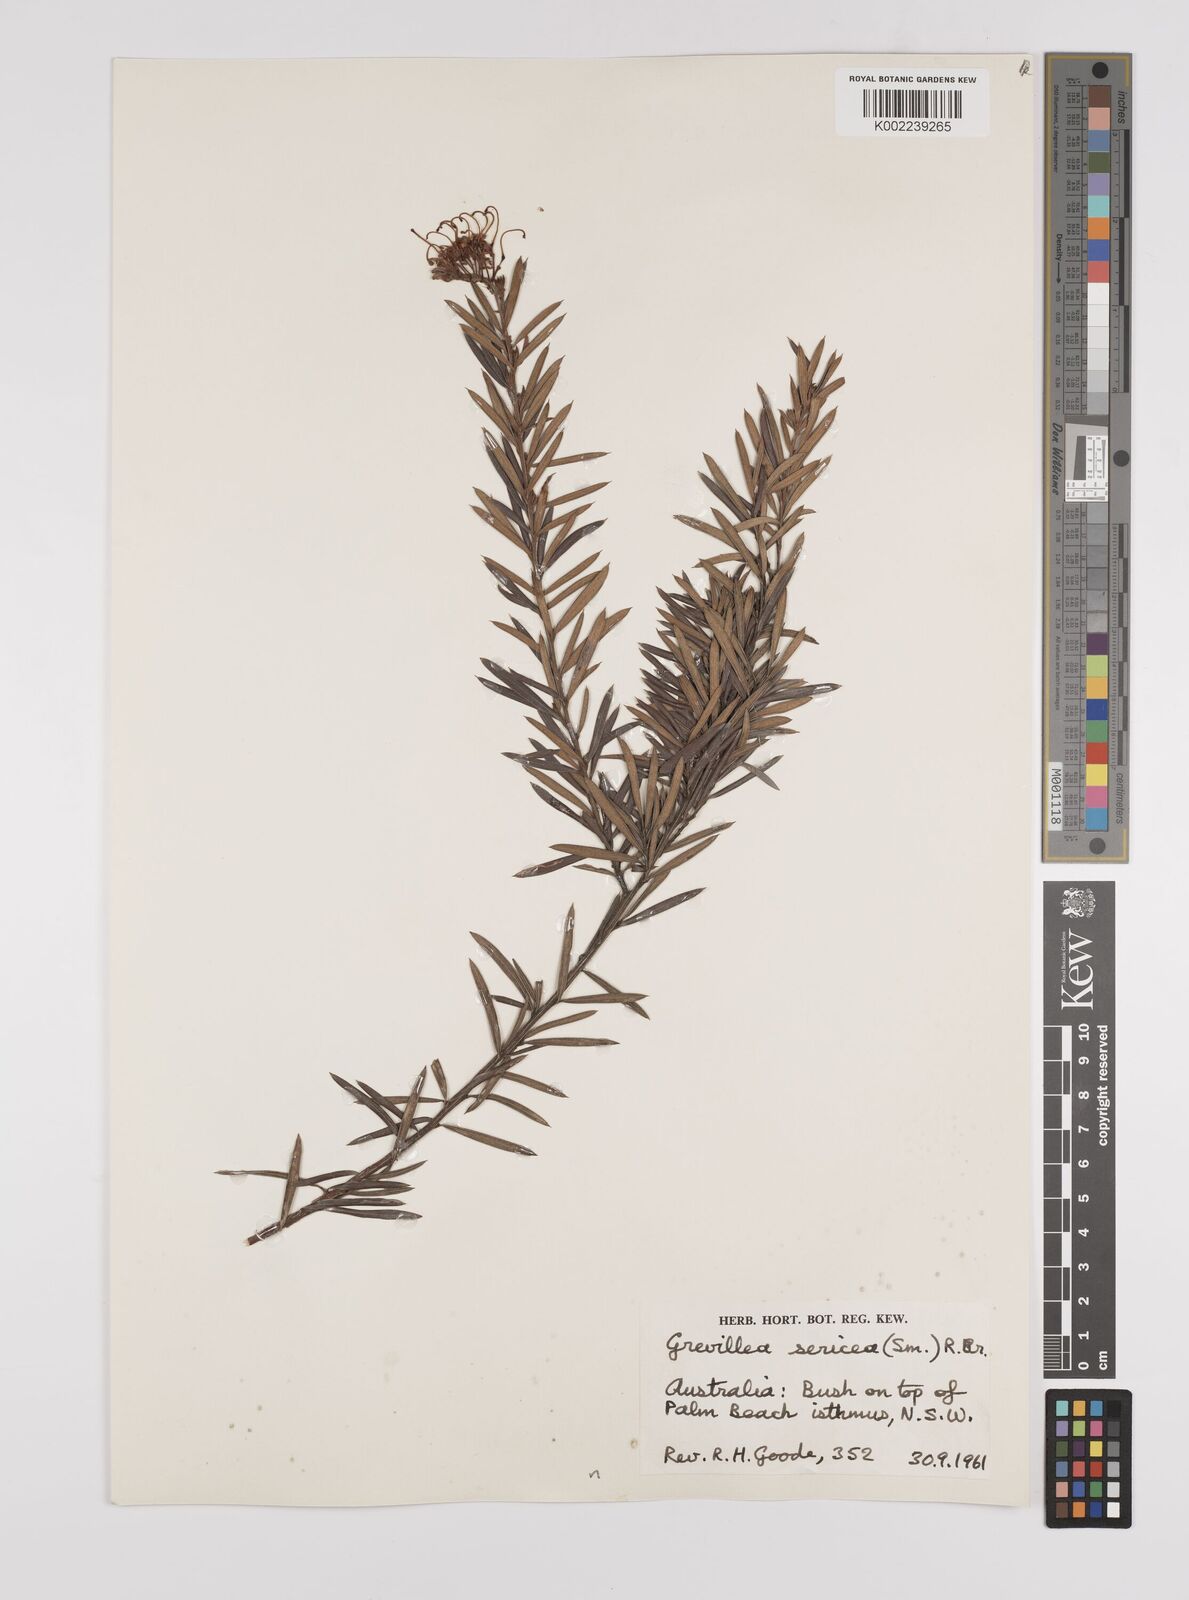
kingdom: Plantae
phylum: Tracheophyta
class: Magnoliopsida
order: Proteales
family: Proteaceae
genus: Grevillea
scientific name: Grevillea sericea
